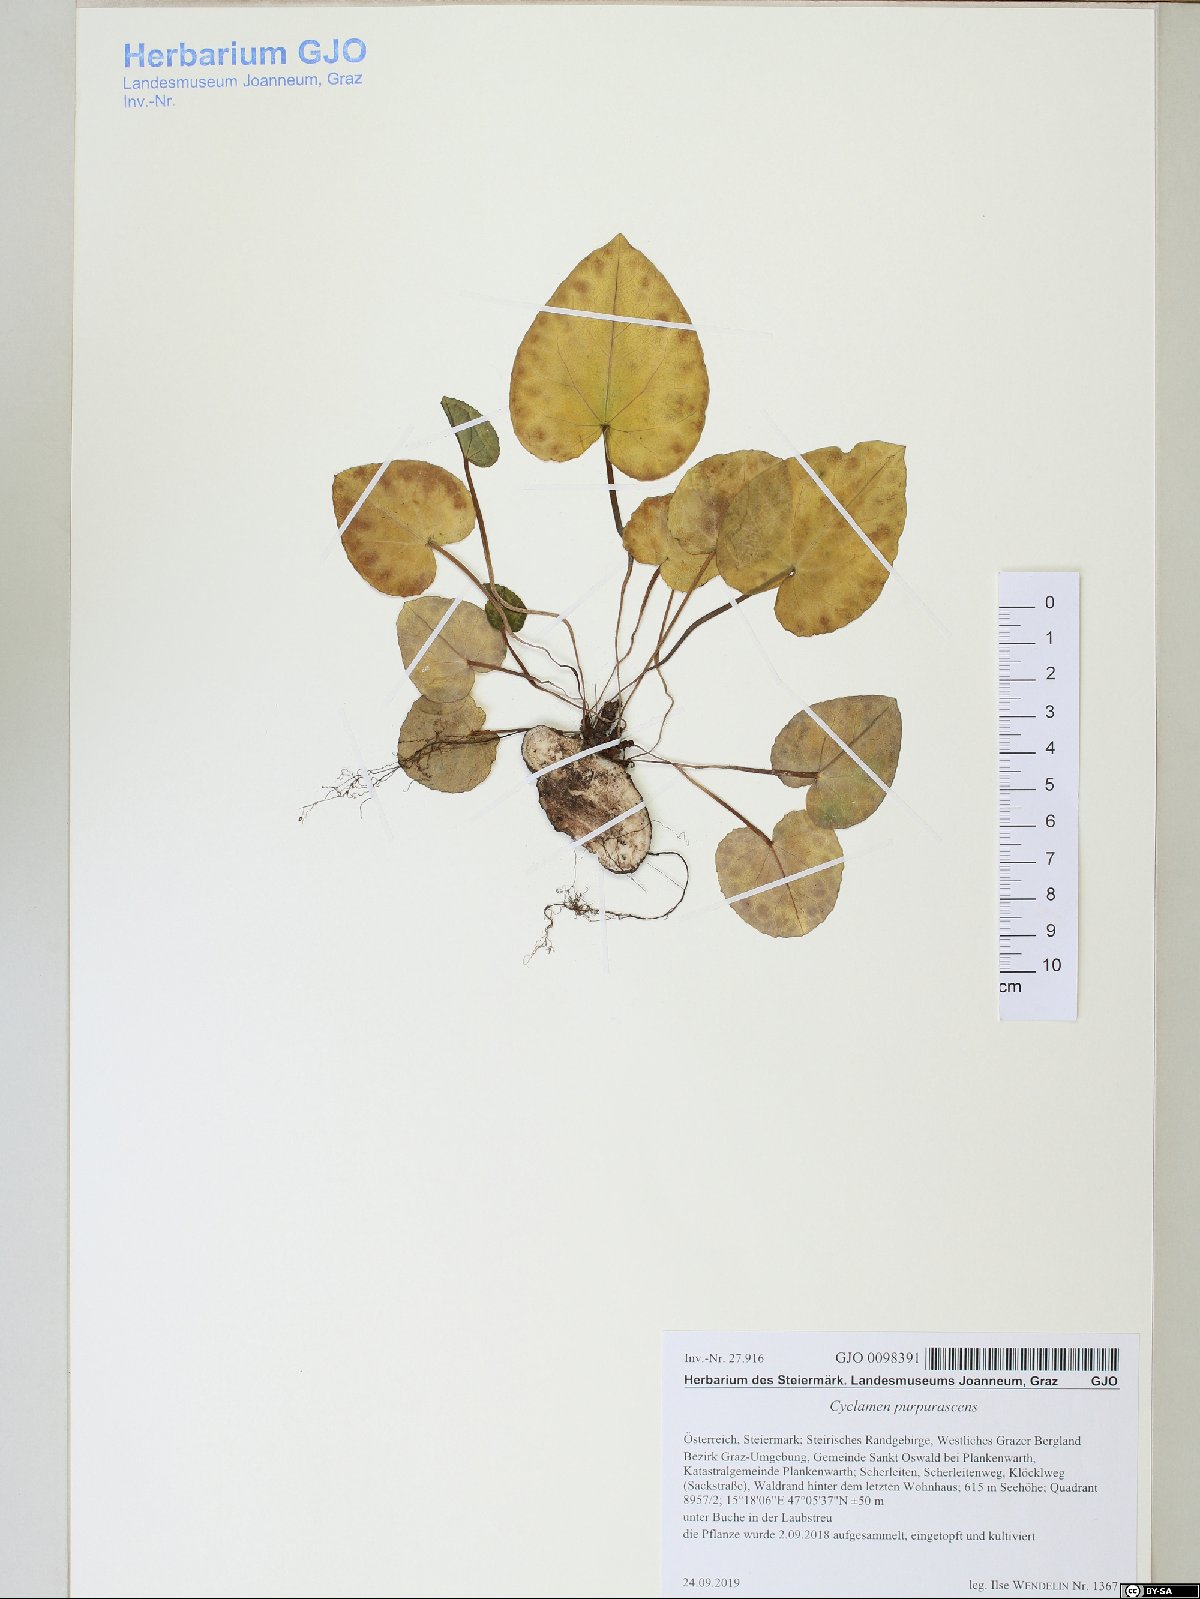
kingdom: Plantae
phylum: Tracheophyta
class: Magnoliopsida
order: Ericales
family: Primulaceae
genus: Cyclamen
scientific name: Cyclamen purpurascens
